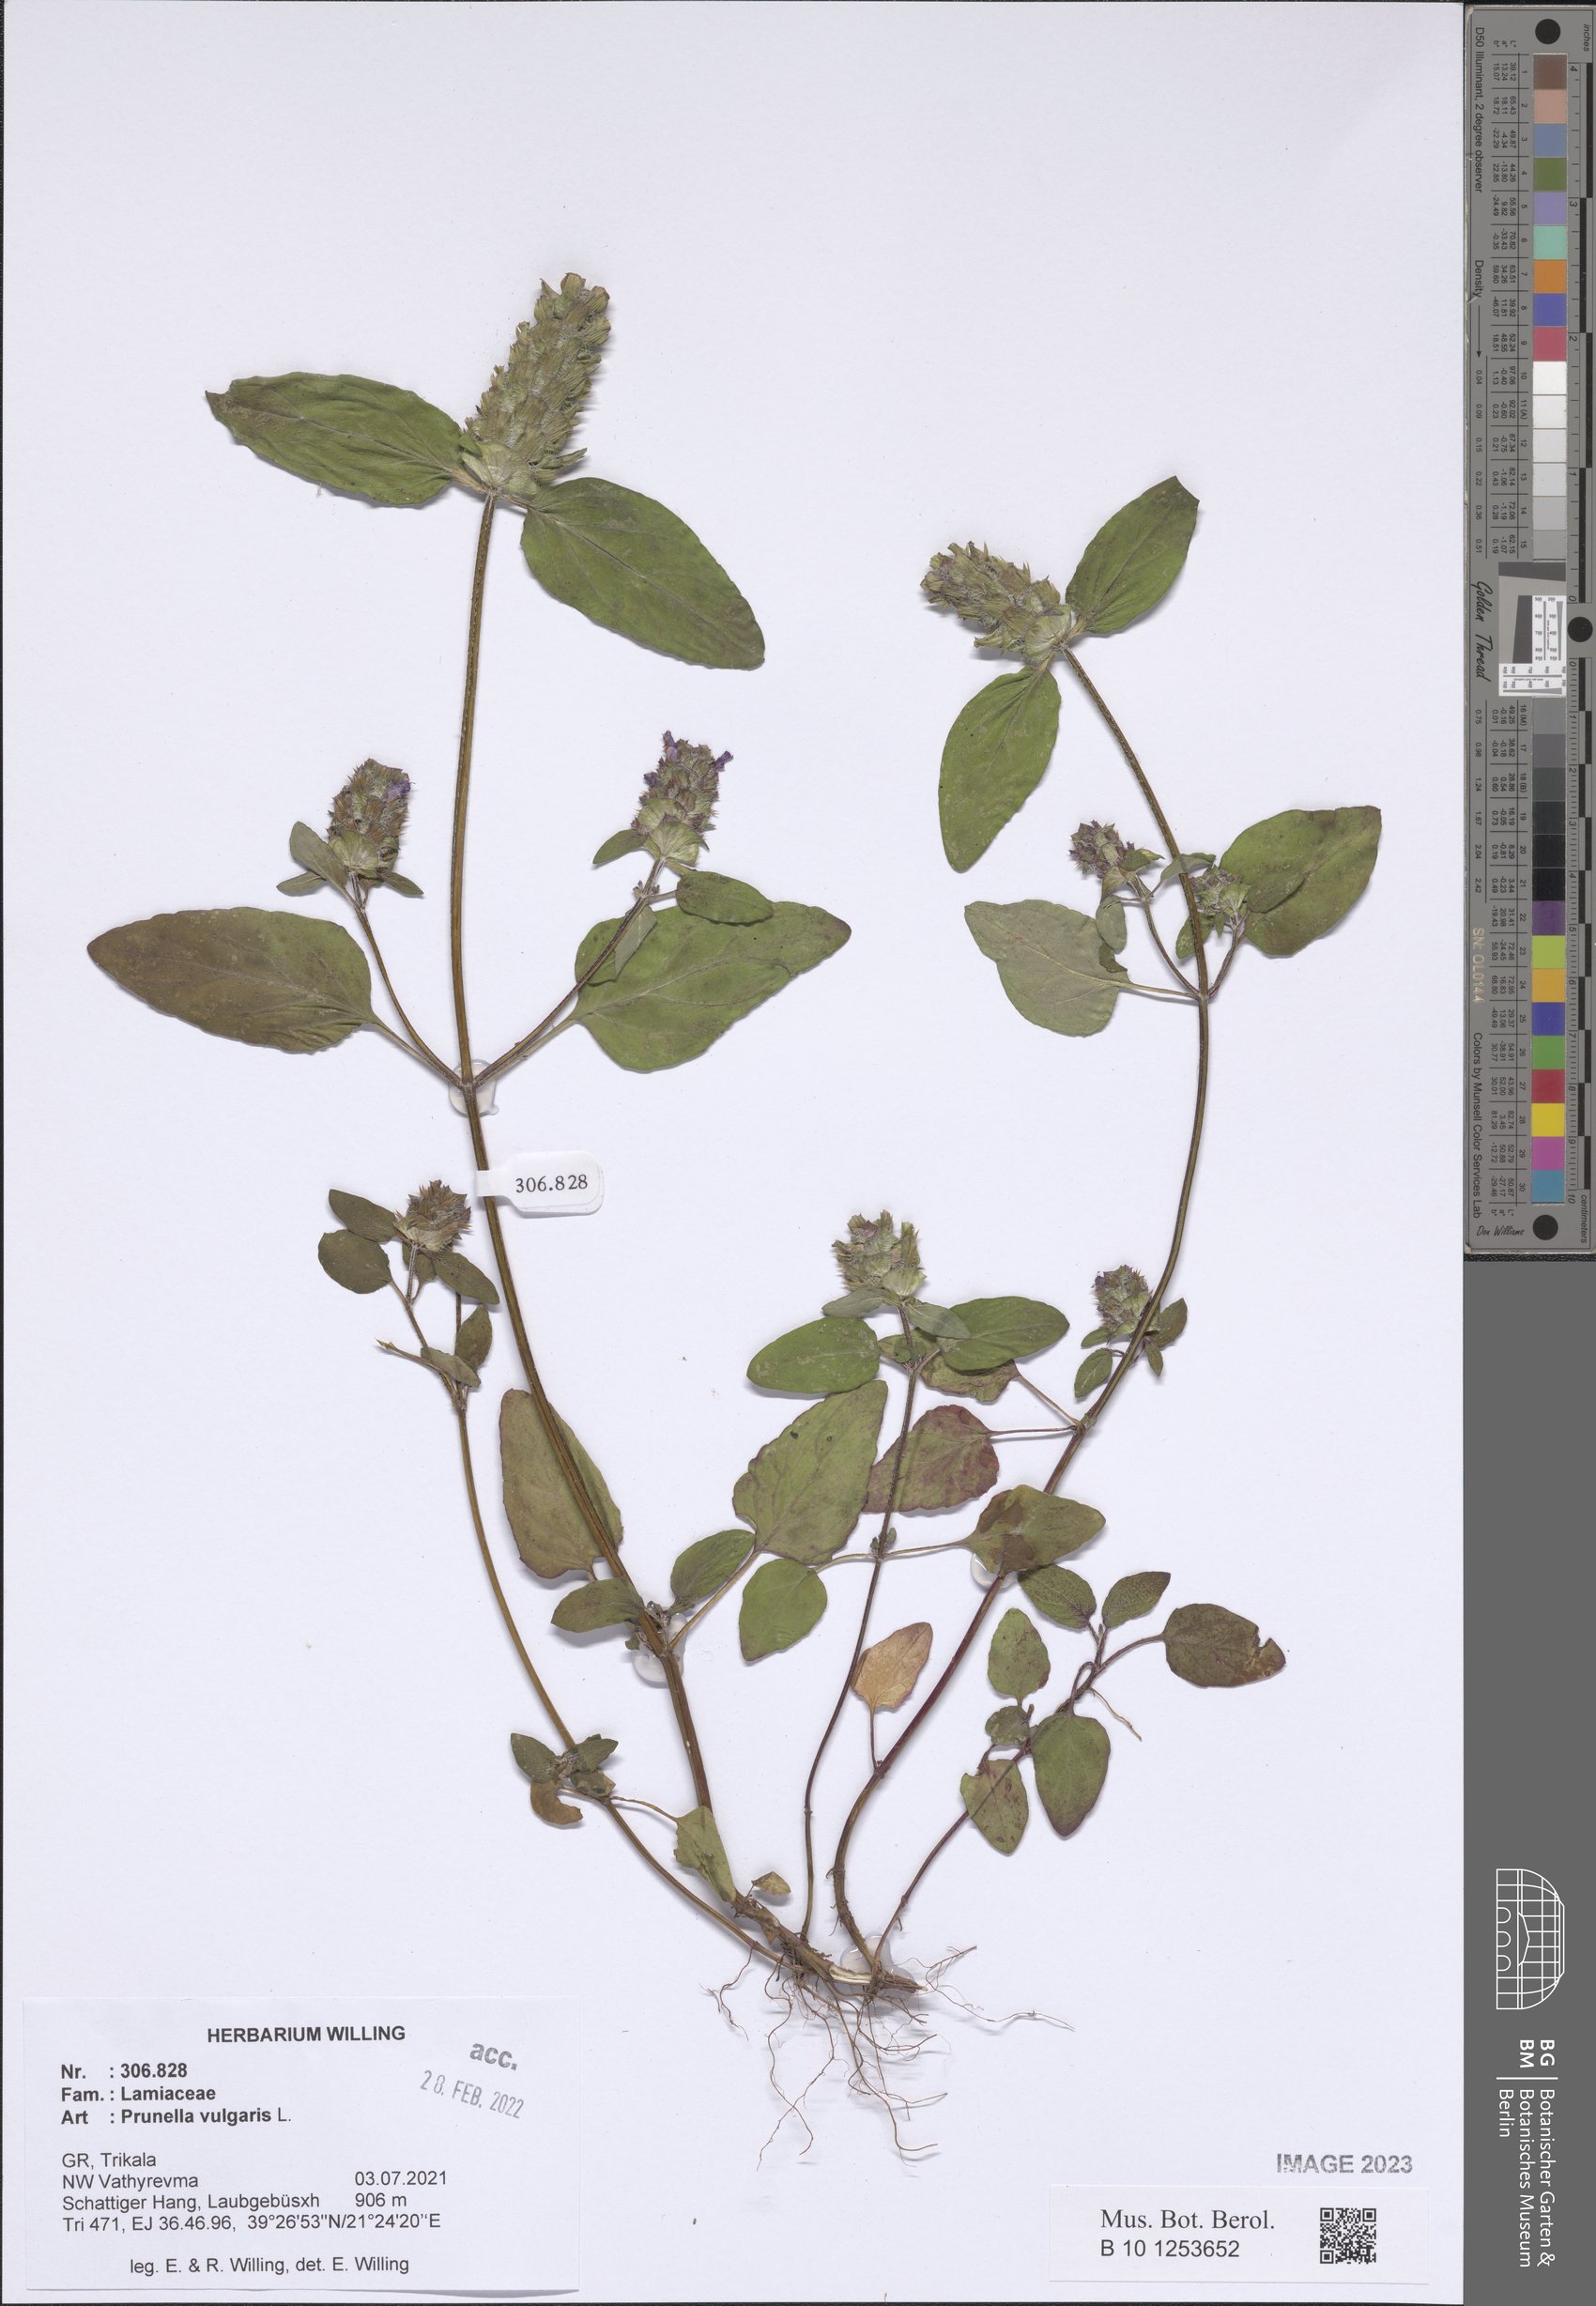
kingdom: Plantae
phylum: Tracheophyta
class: Magnoliopsida
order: Lamiales
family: Lamiaceae
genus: Prunella
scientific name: Prunella vulgaris
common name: Heal-all
